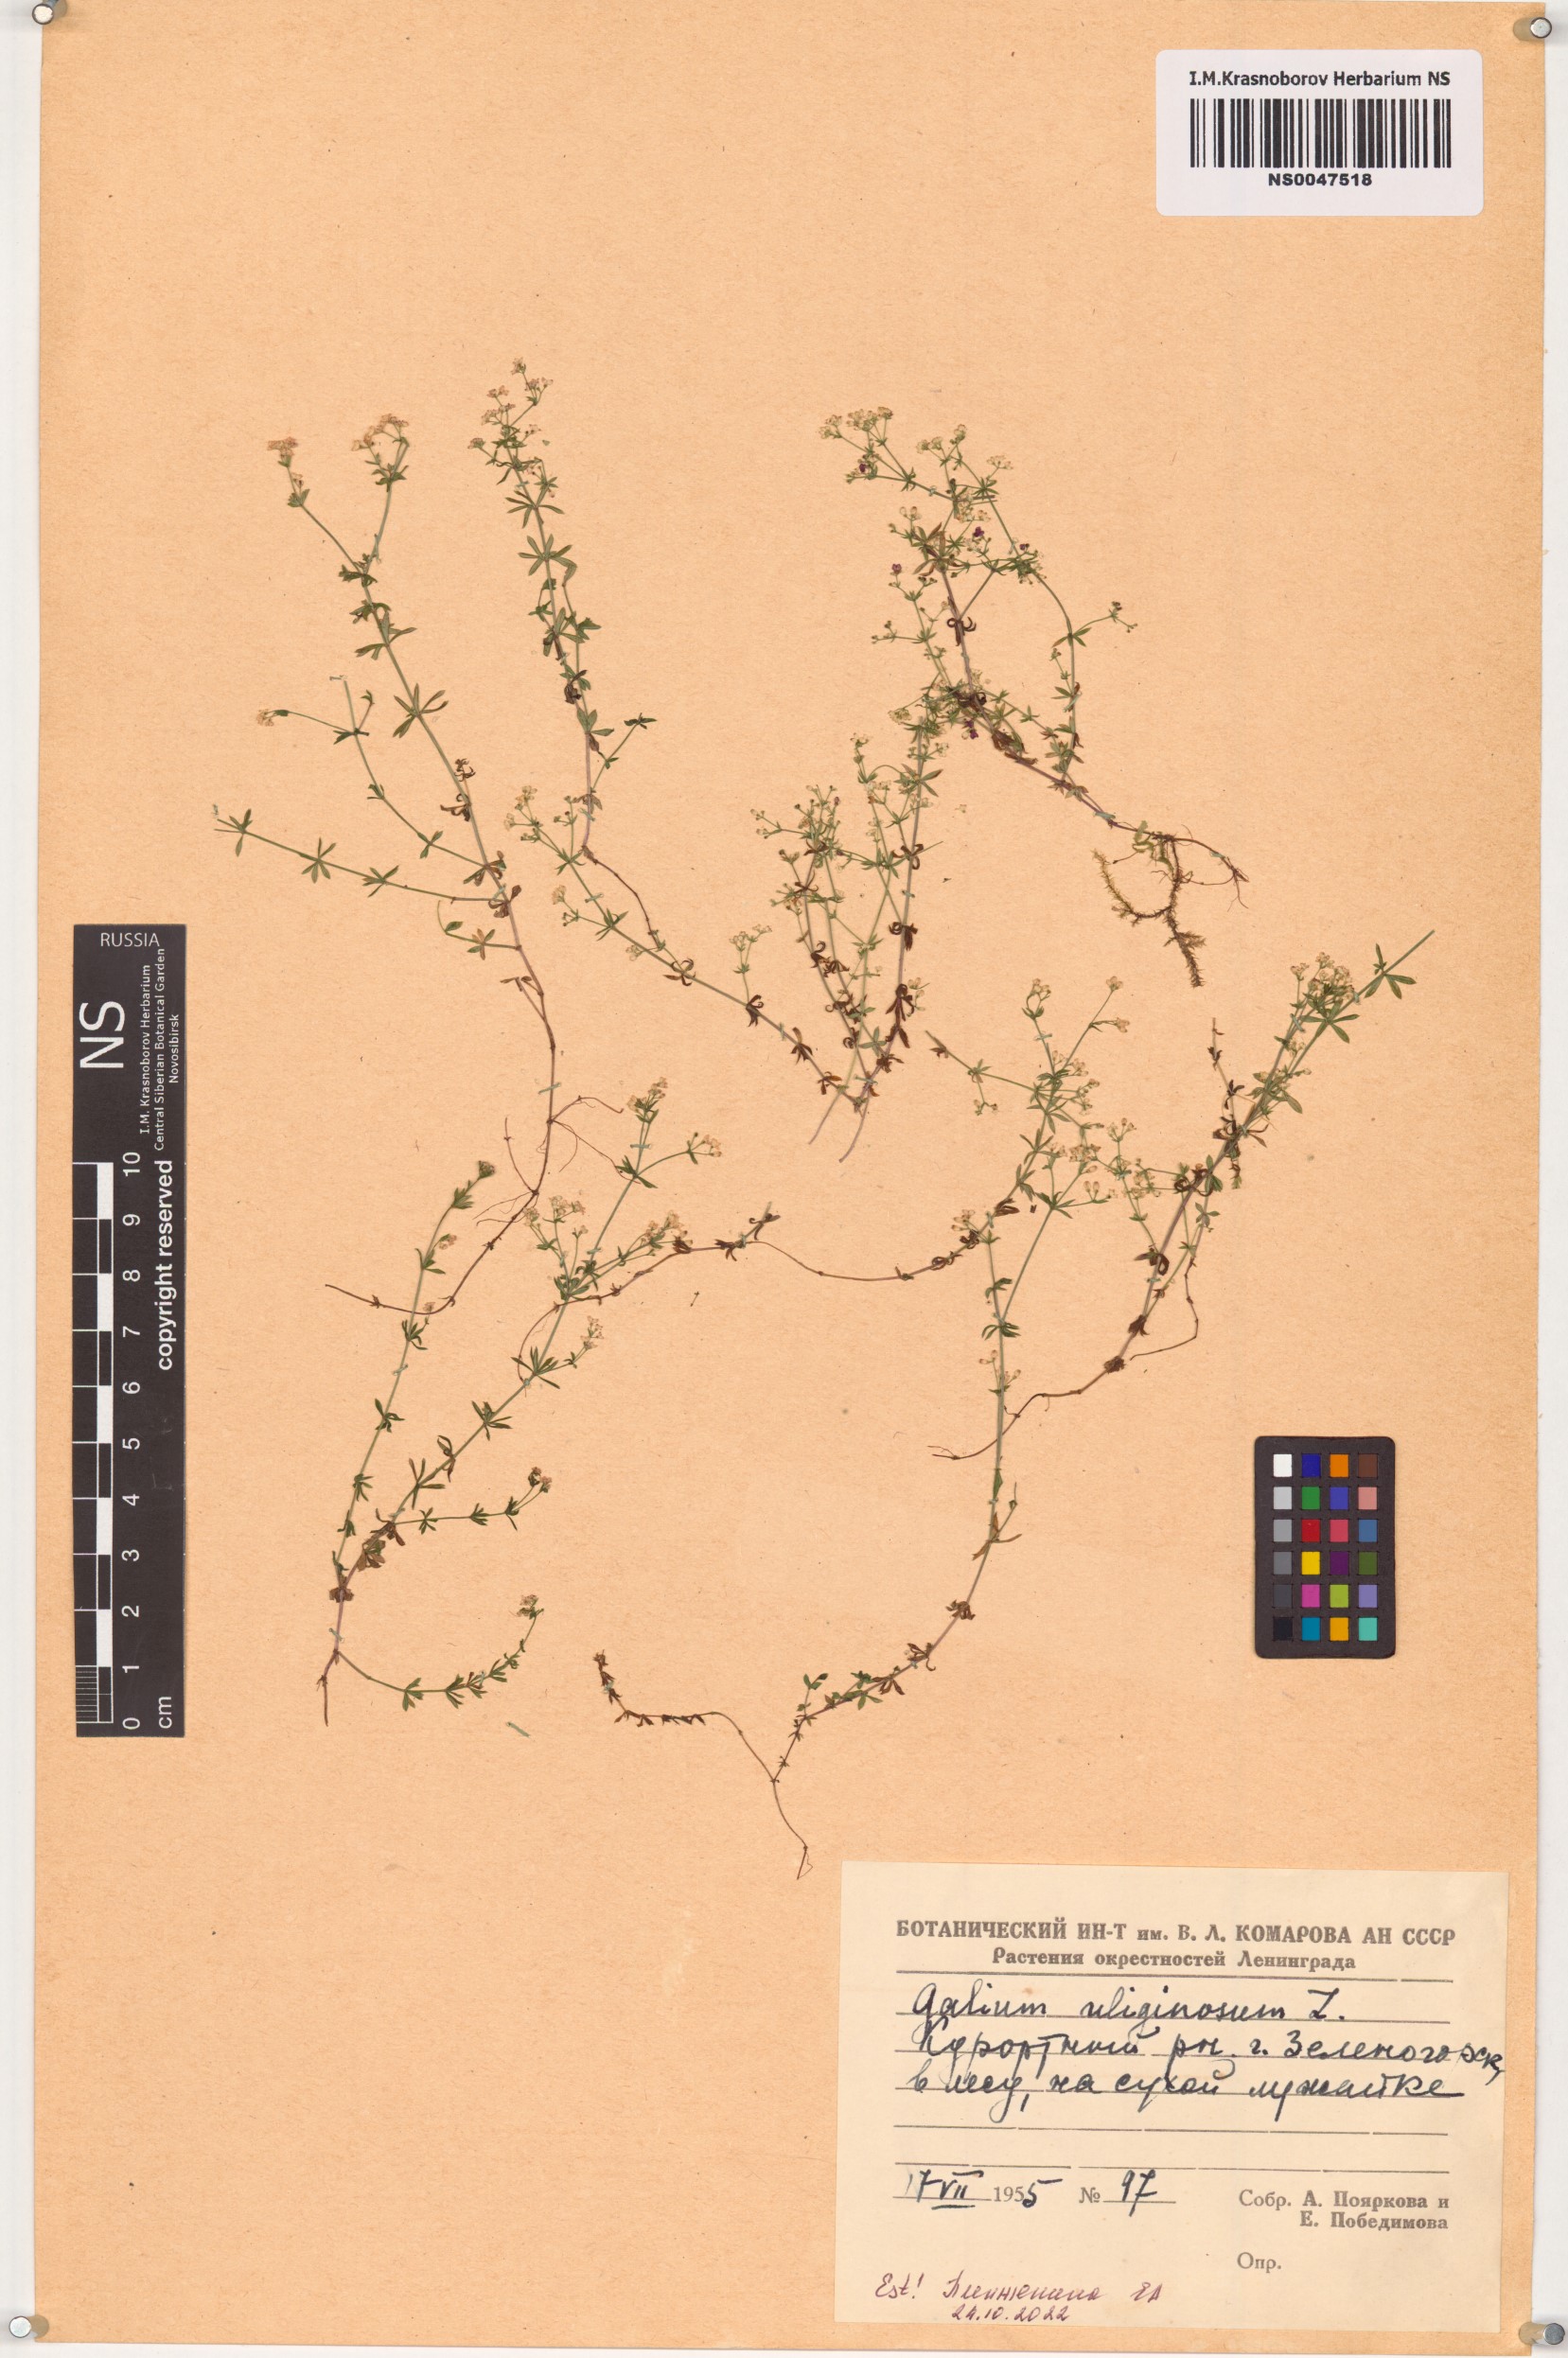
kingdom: Plantae
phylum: Tracheophyta
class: Magnoliopsida
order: Gentianales
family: Rubiaceae
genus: Galium
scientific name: Galium uliginosum
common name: Fen bedstraw
